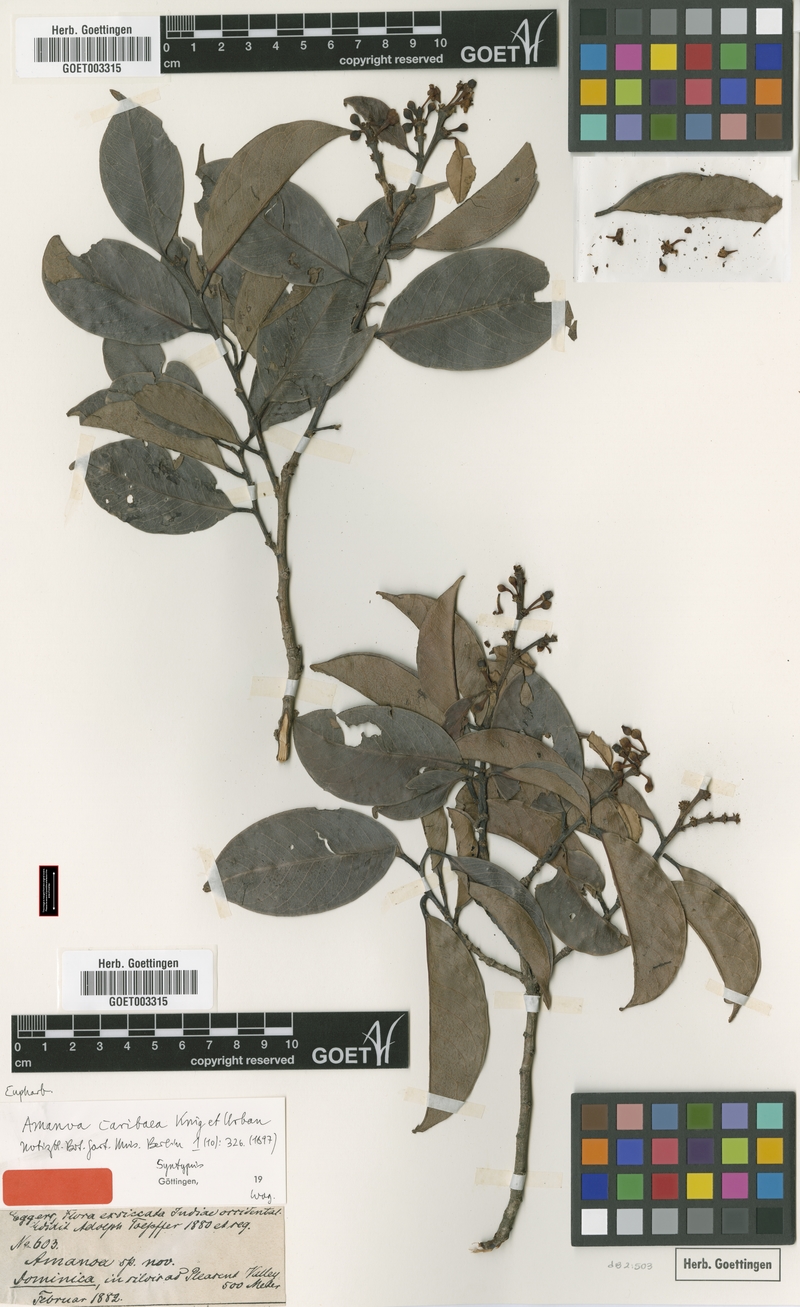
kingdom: Plantae
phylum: Tracheophyta
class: Magnoliopsida
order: Malpighiales
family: Phyllanthaceae
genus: Amanoa
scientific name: Amanoa caribaea
